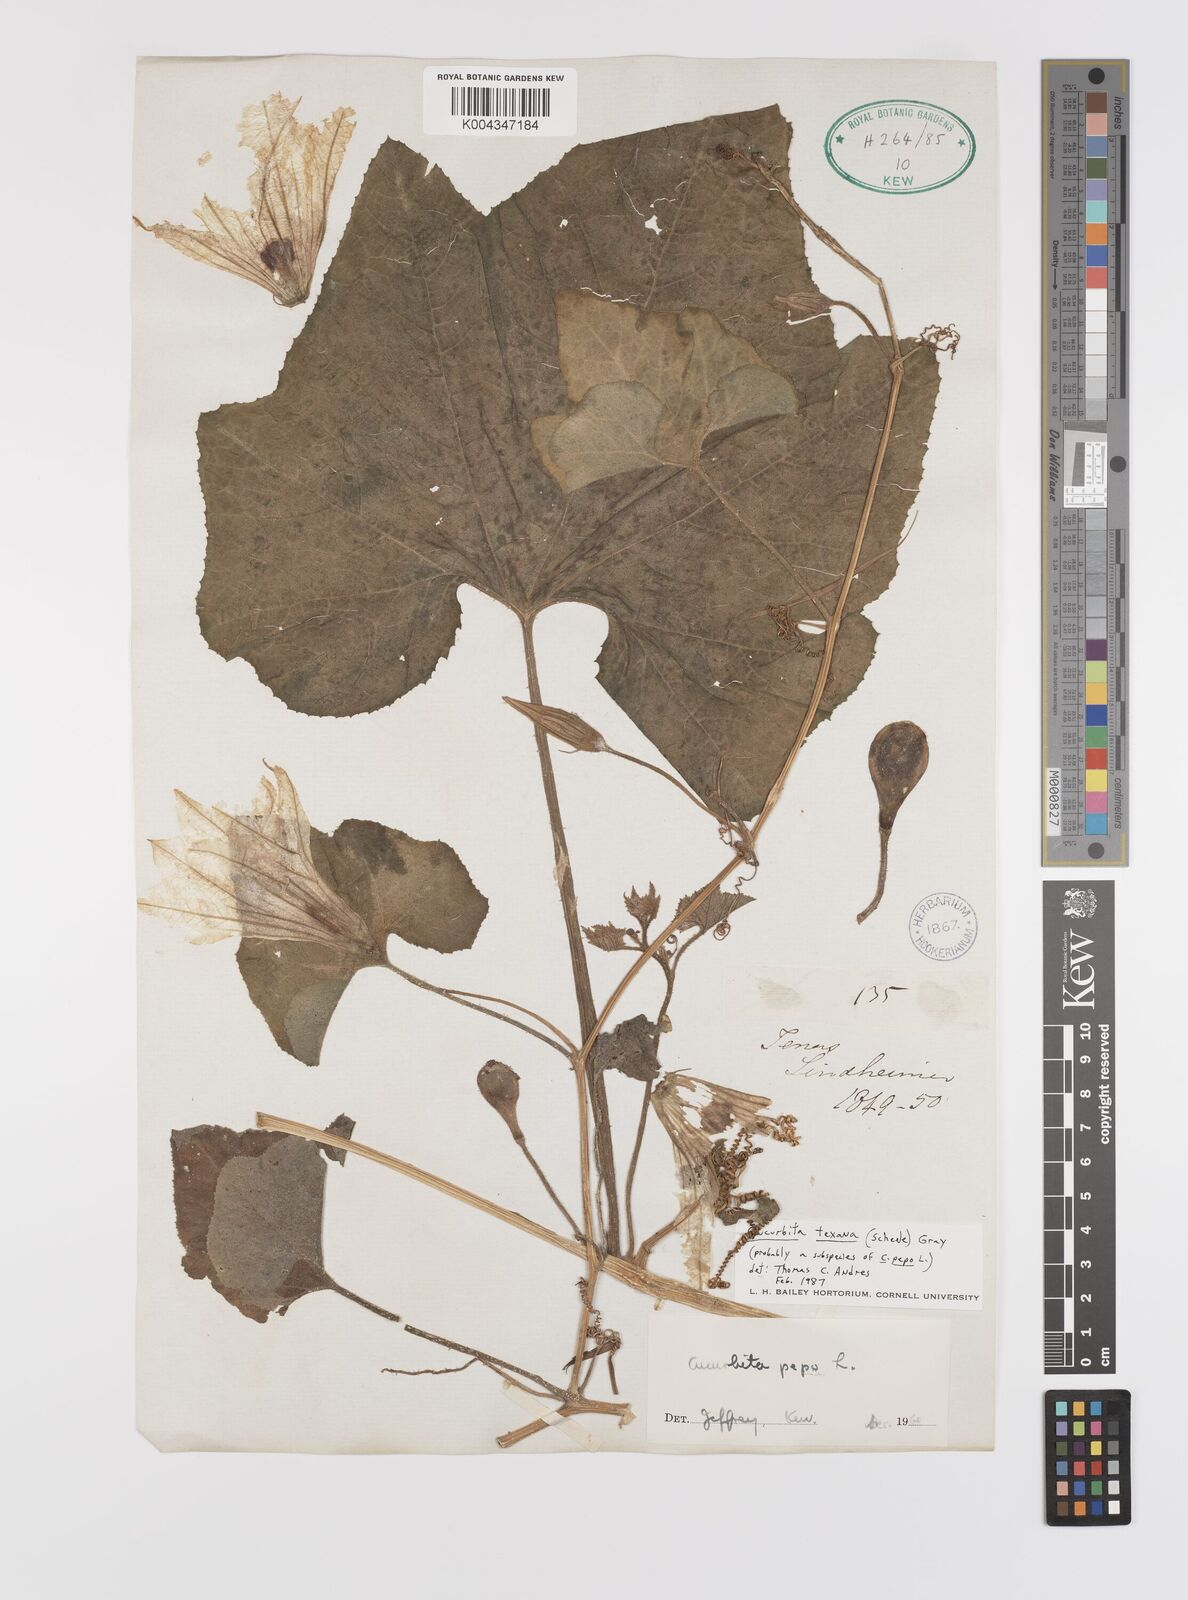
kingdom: Plantae
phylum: Tracheophyta
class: Magnoliopsida
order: Cucurbitales
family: Cucurbitaceae
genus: Cucurbita
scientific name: Cucurbita palmata
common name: Coyote-melon
